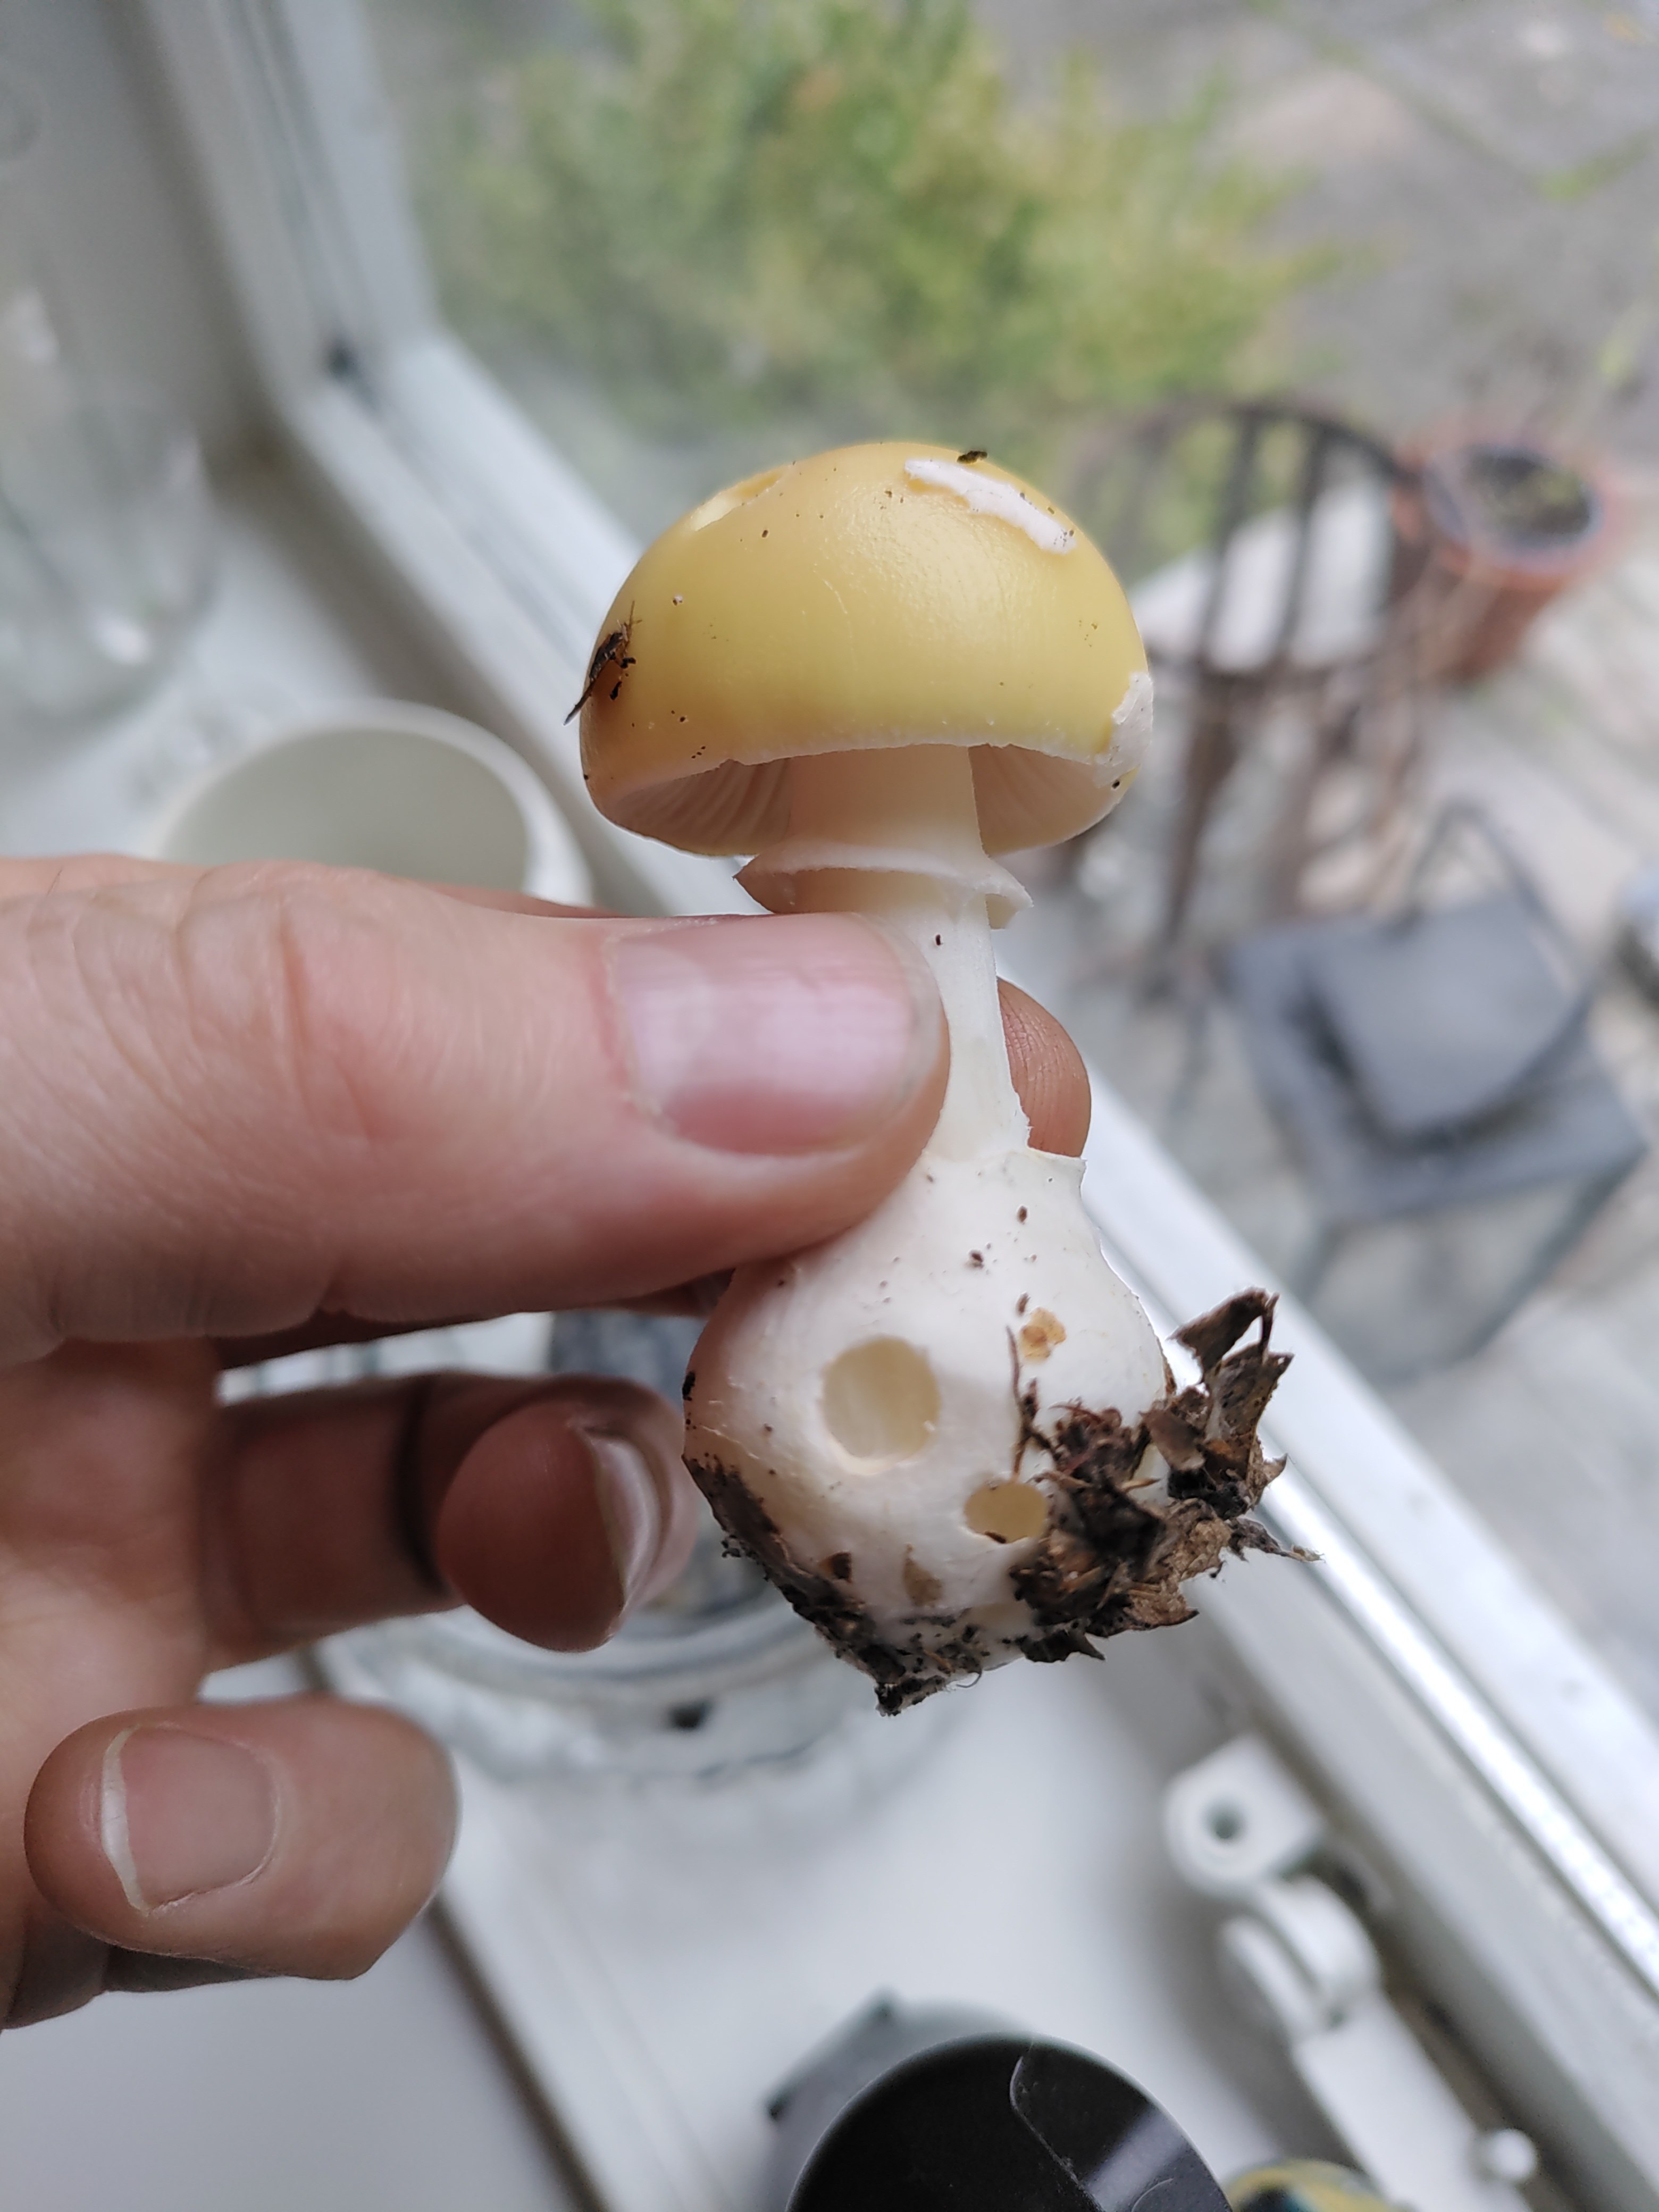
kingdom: Fungi
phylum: Basidiomycota
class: Agaricomycetes
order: Agaricales
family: Amanitaceae
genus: Amanita
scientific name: Amanita gemmata
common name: okkergul fluesvamp
